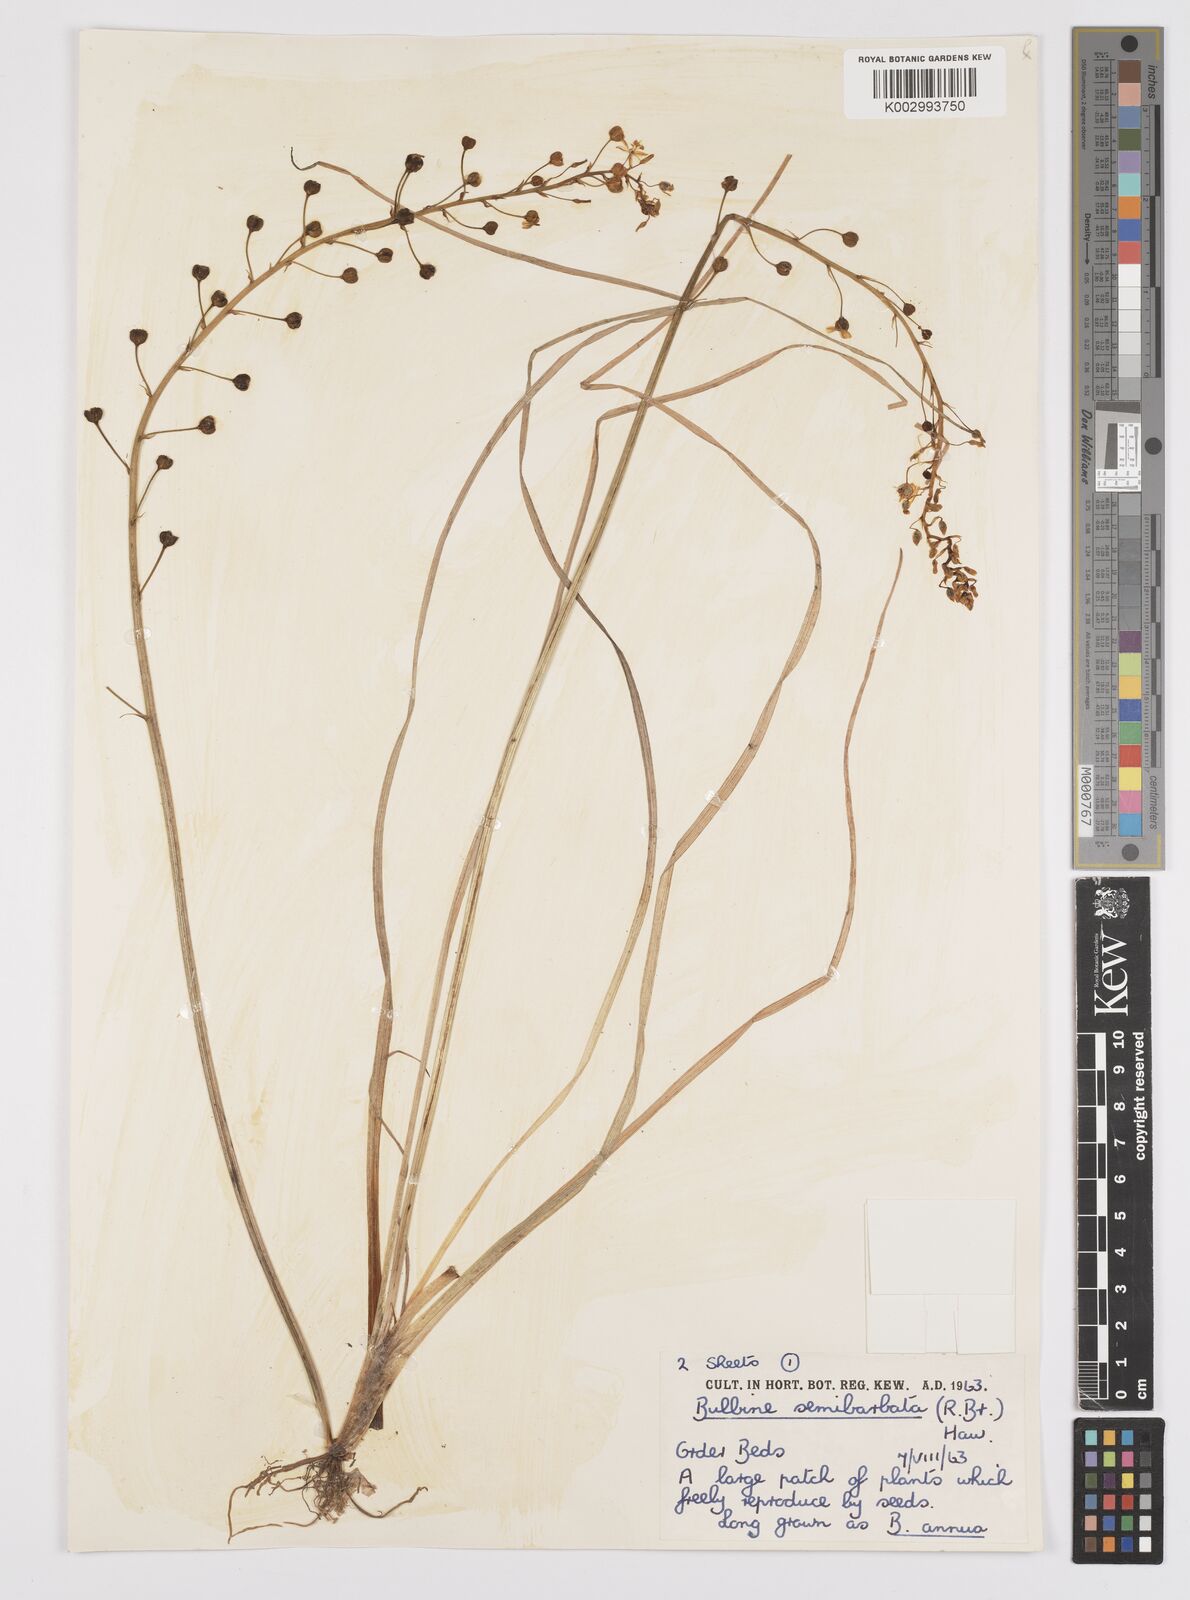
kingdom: Plantae
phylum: Tracheophyta
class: Liliopsida
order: Asparagales
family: Asphodelaceae
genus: Bulbine
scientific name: Bulbine semibarbata
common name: Leek lily
